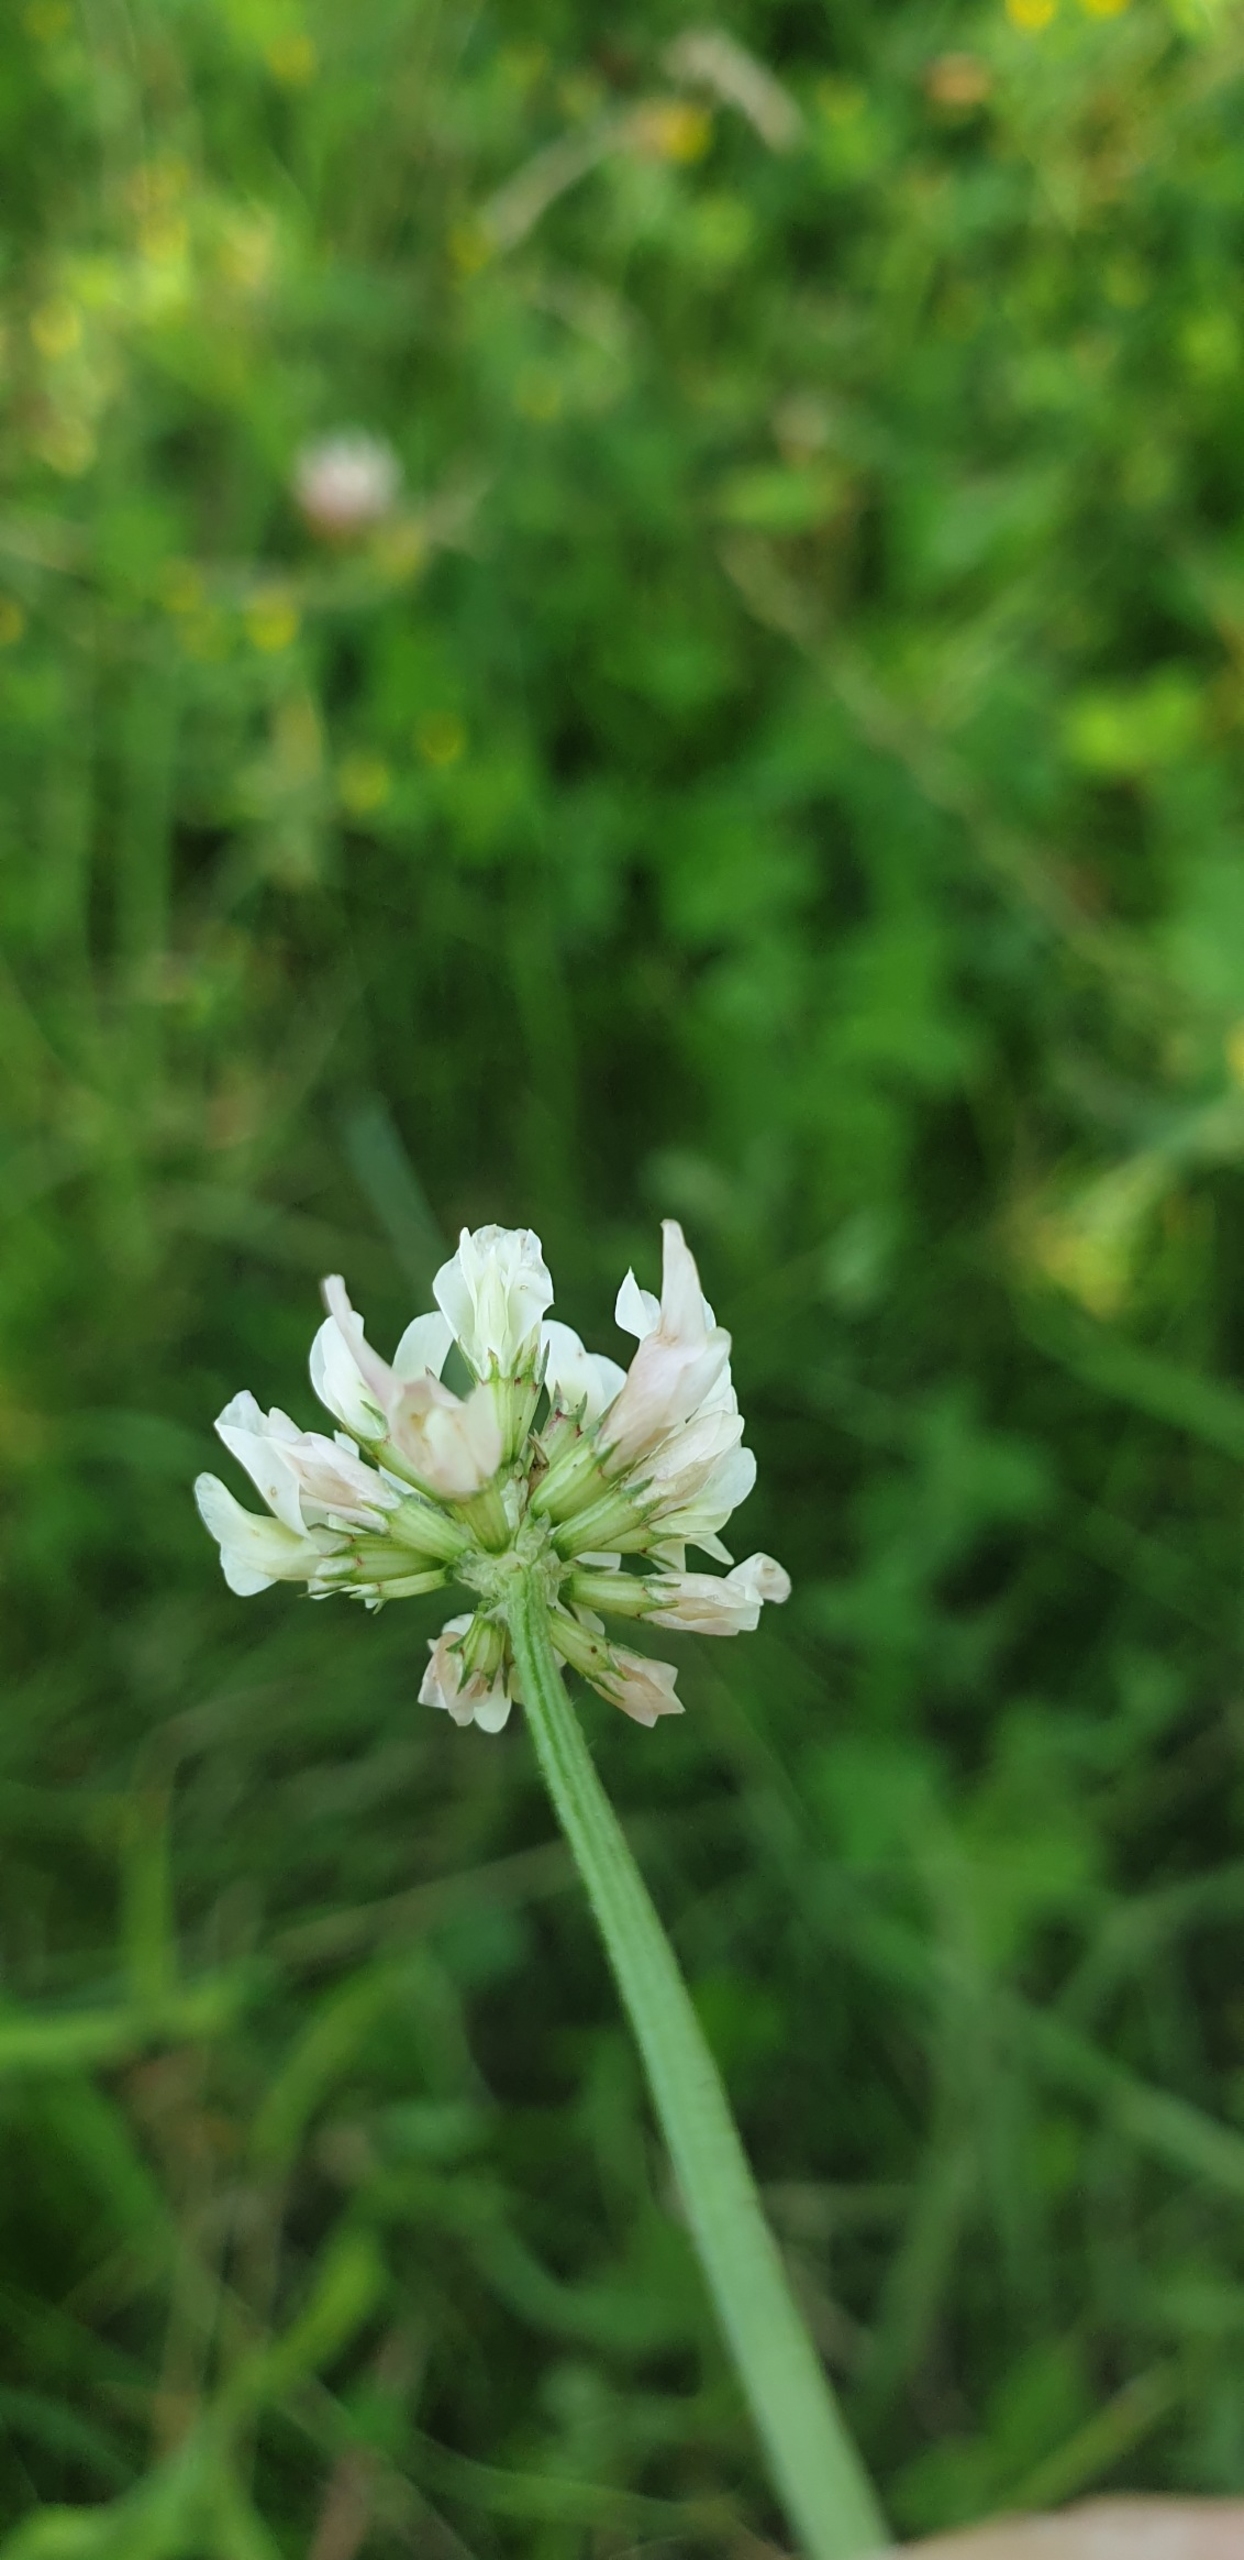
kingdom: Plantae
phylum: Tracheophyta
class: Magnoliopsida
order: Fabales
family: Fabaceae
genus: Trifolium
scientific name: Trifolium repens
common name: Hvid-kløver
